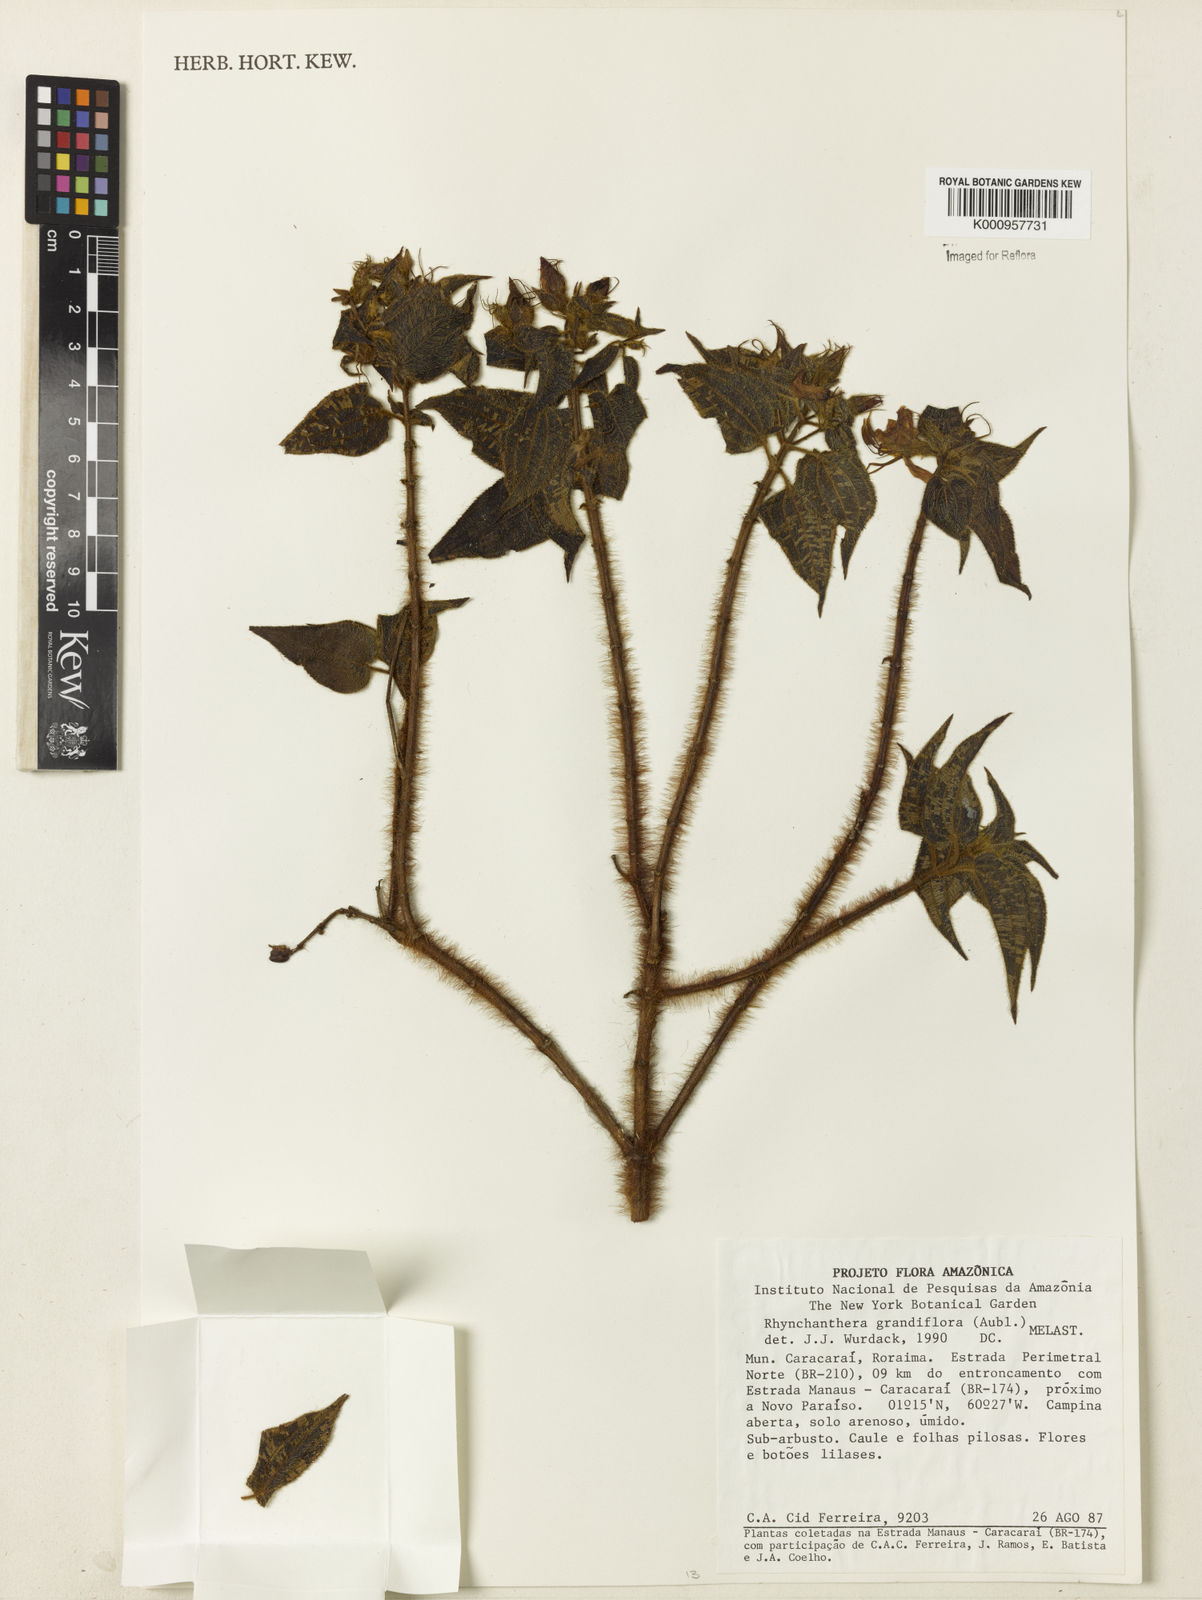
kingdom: Plantae
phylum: Tracheophyta
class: Magnoliopsida
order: Myrtales
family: Melastomataceae
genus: Rhynchanthera
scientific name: Rhynchanthera grandiflora
